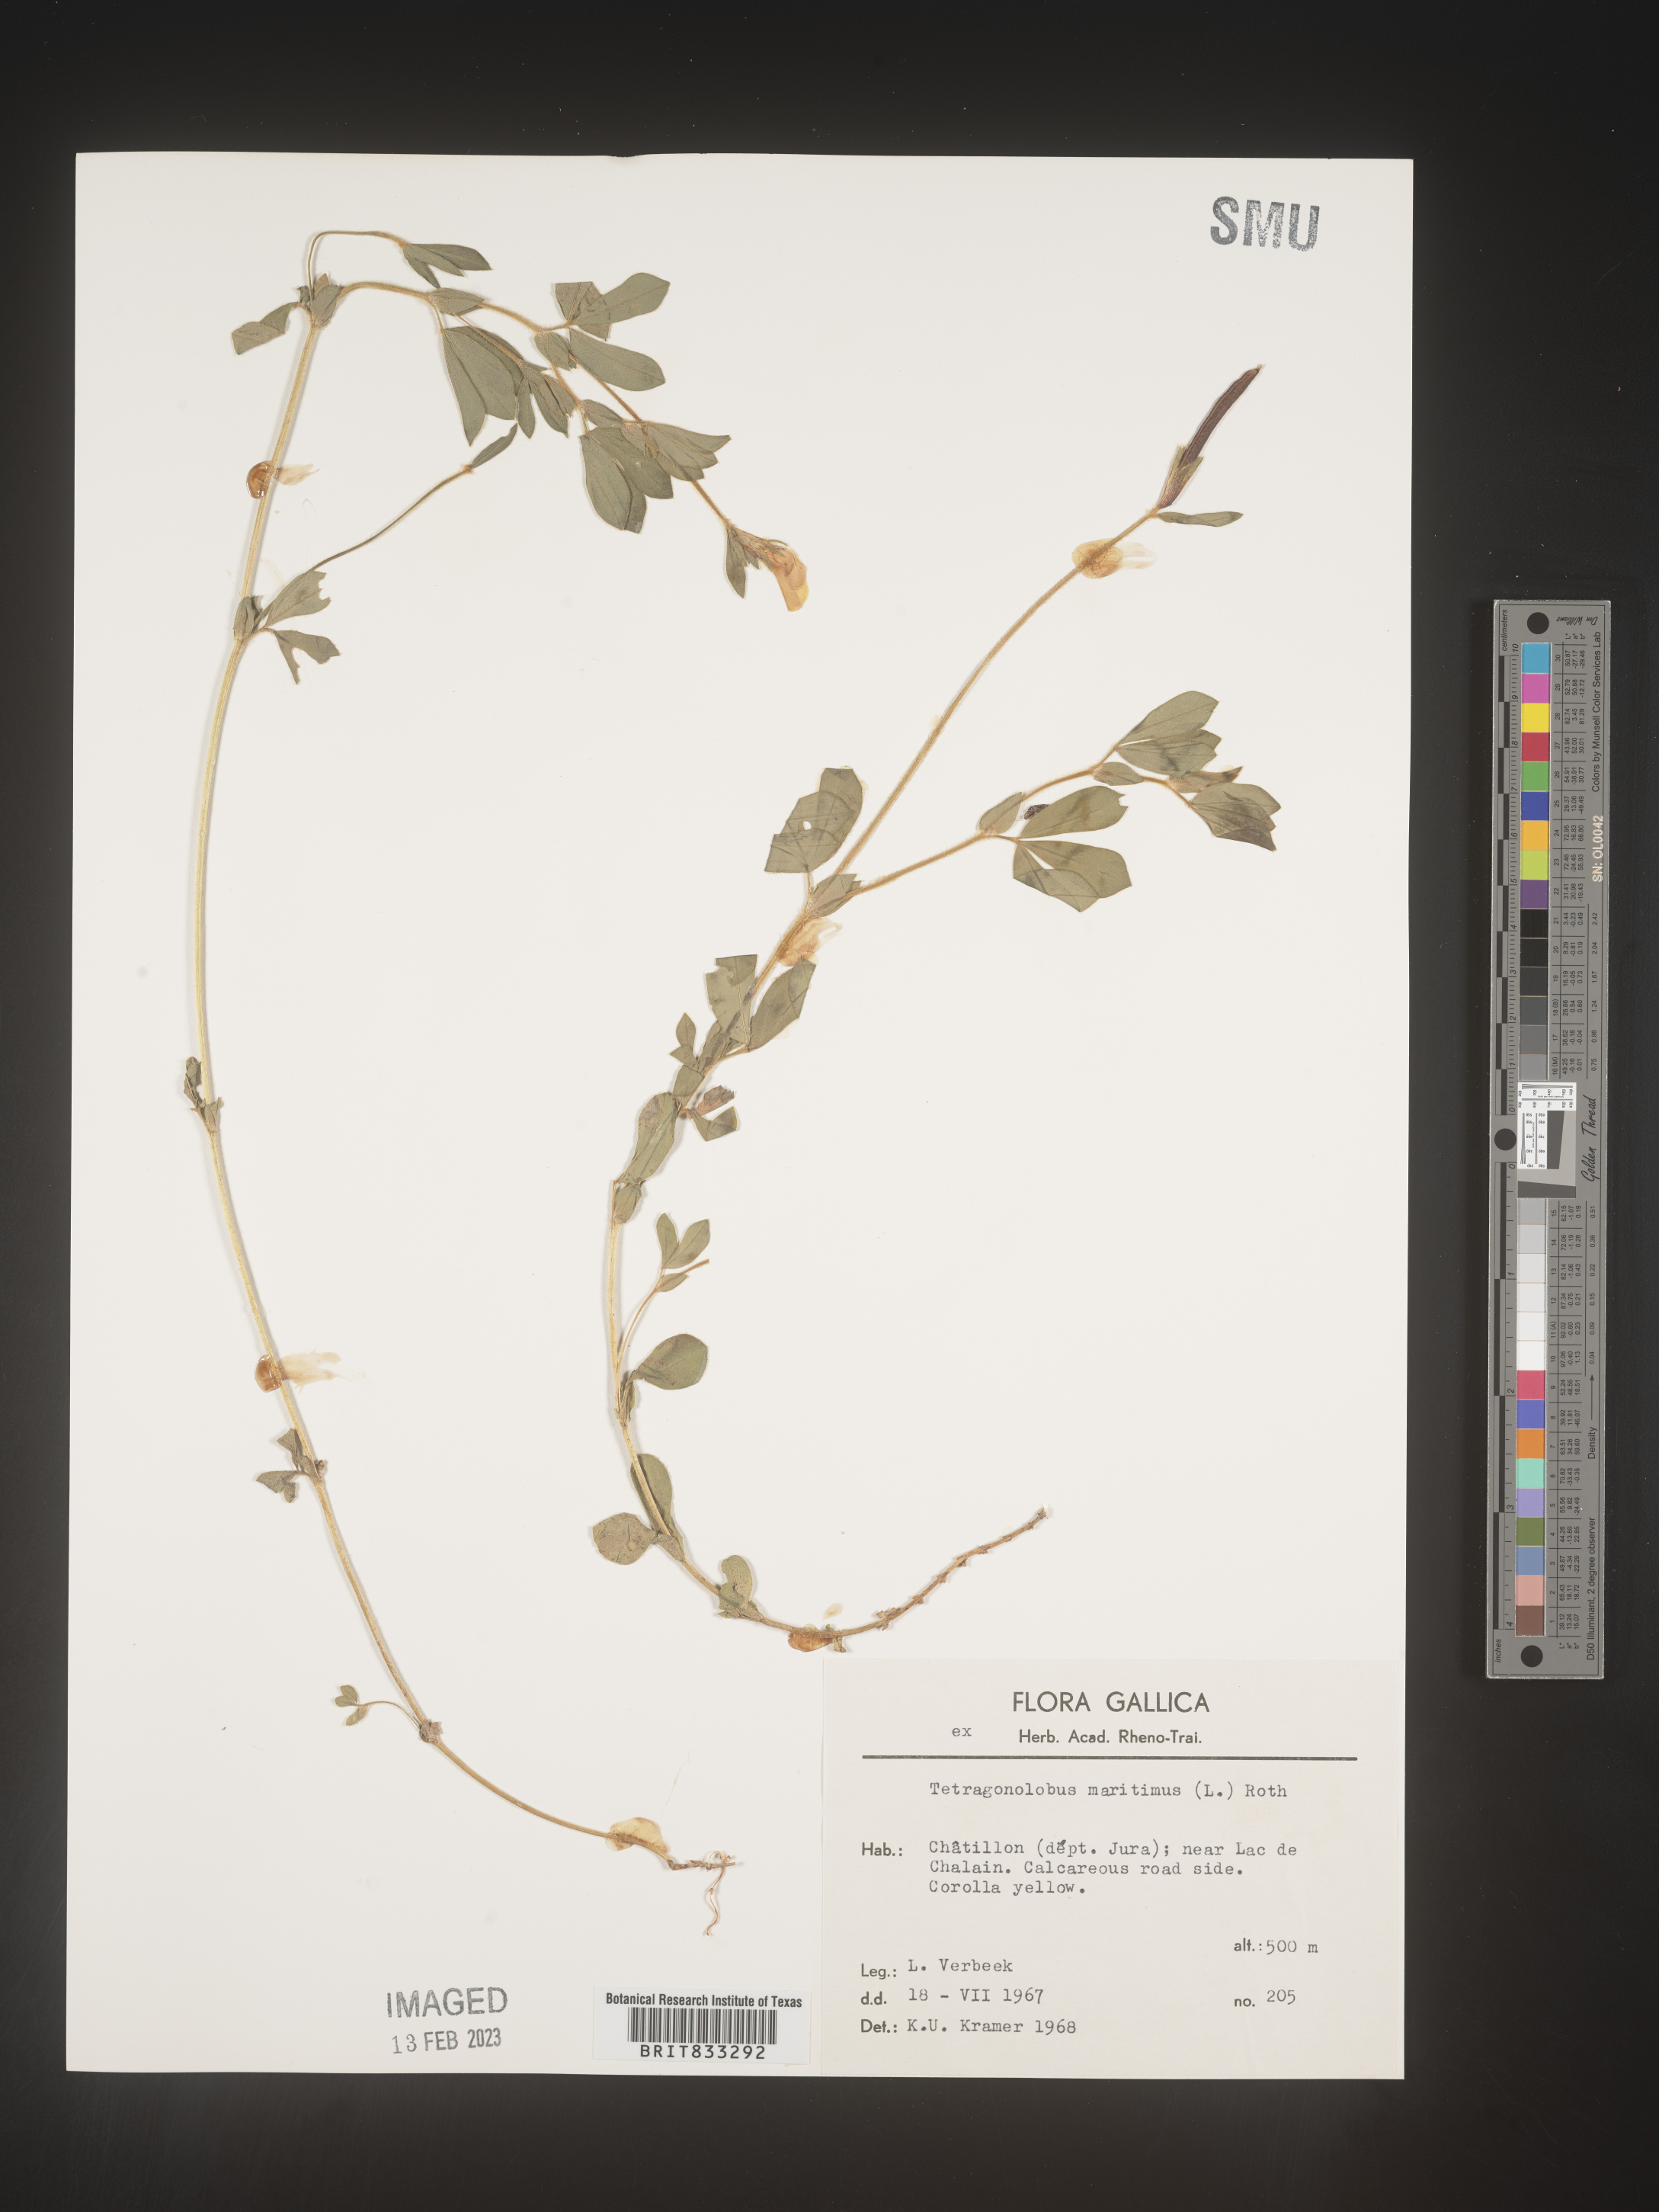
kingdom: Plantae
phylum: Tracheophyta
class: Magnoliopsida
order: Fabales
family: Fabaceae
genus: Lotus
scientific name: Lotus
